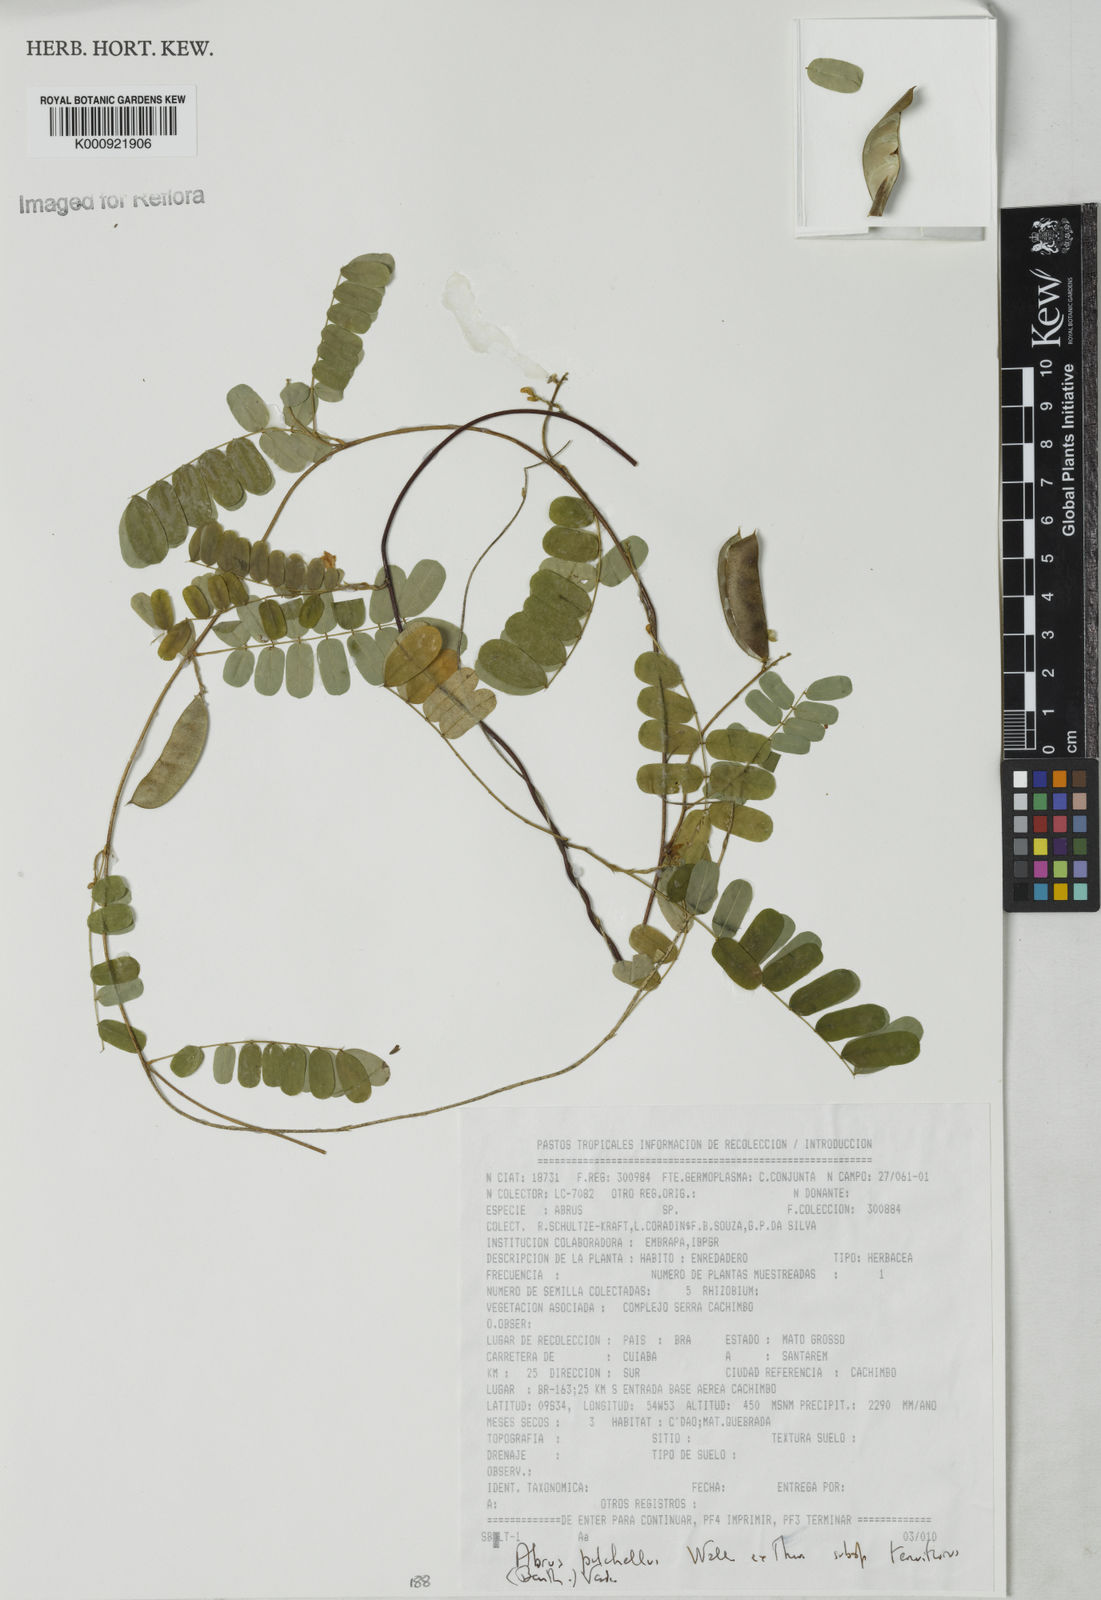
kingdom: Plantae
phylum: Tracheophyta
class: Magnoliopsida
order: Fabales
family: Fabaceae
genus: Abrus
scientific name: Abrus melanospermus
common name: Licorice-root
